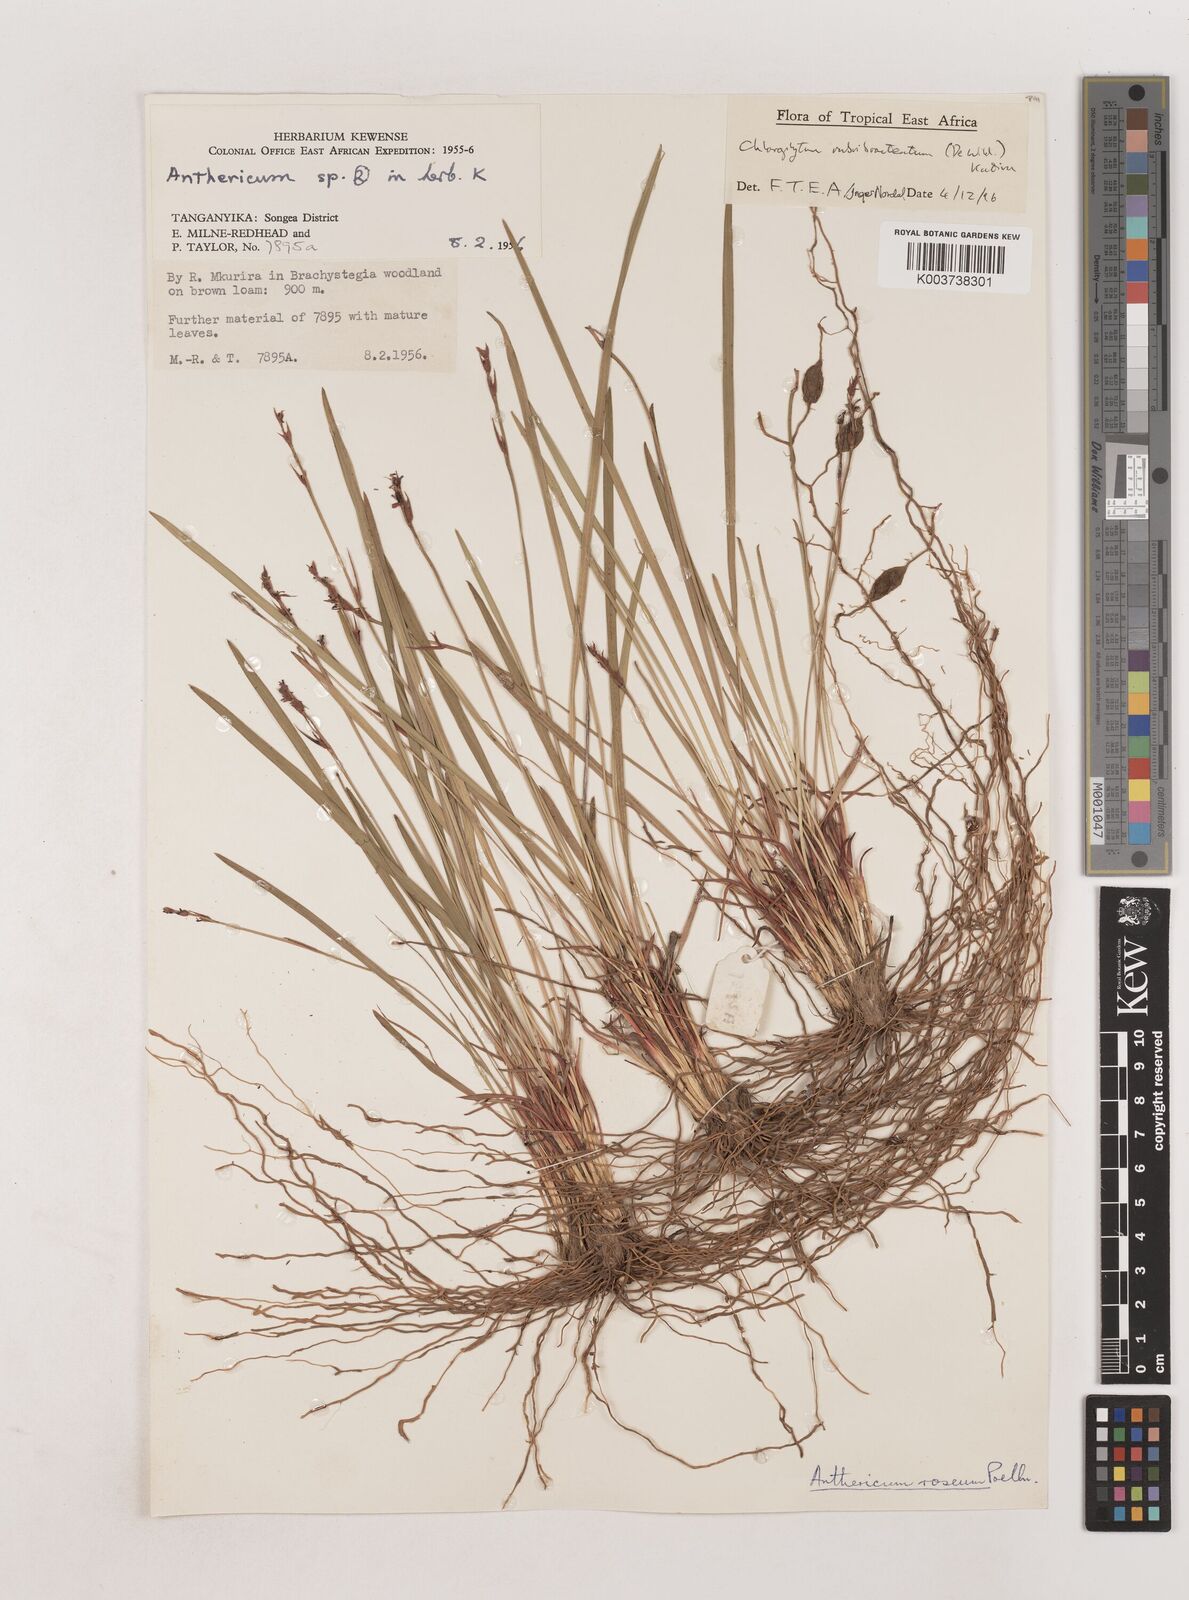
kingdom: Plantae
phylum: Tracheophyta
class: Liliopsida
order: Asparagales
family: Asparagaceae
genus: Chlorophytum
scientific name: Chlorophytum rubribracteatum
